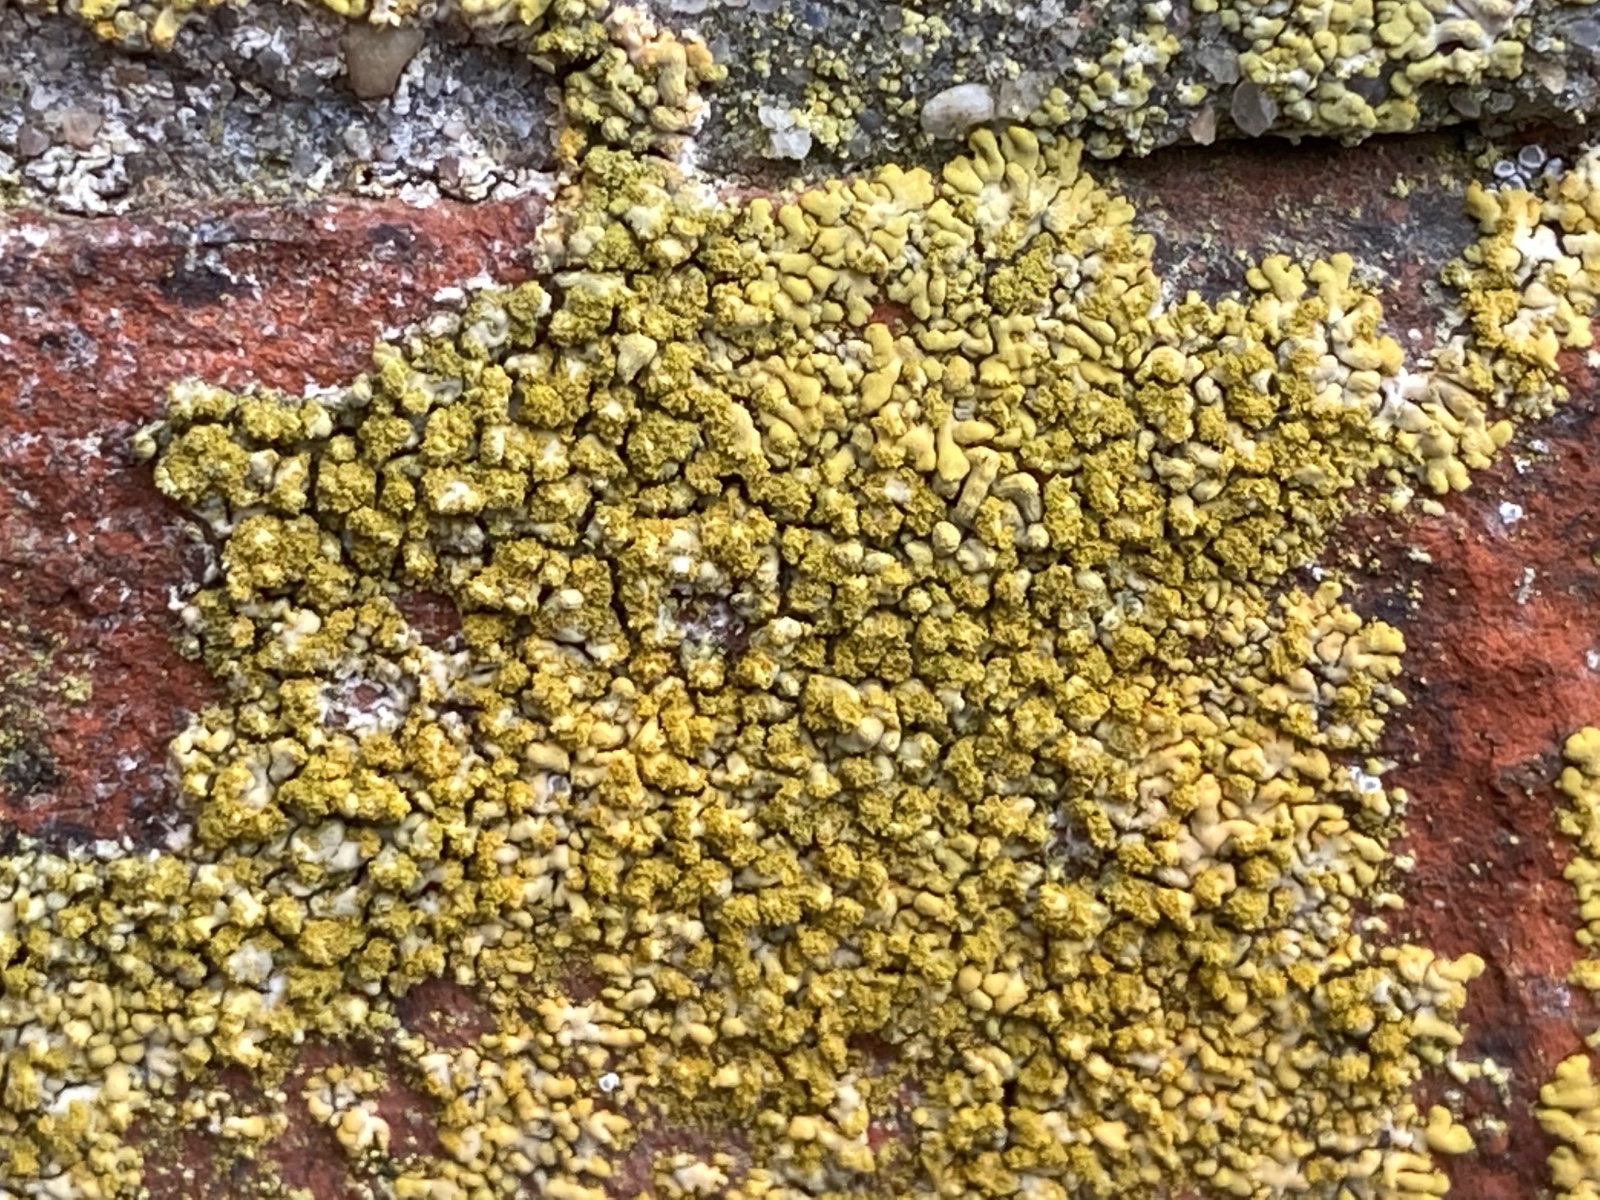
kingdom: Fungi
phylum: Ascomycota
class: Lecanoromycetes
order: Teloschistales
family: Teloschistaceae
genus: Calogaya
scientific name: Calogaya decipiens
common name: knudret orangelav
